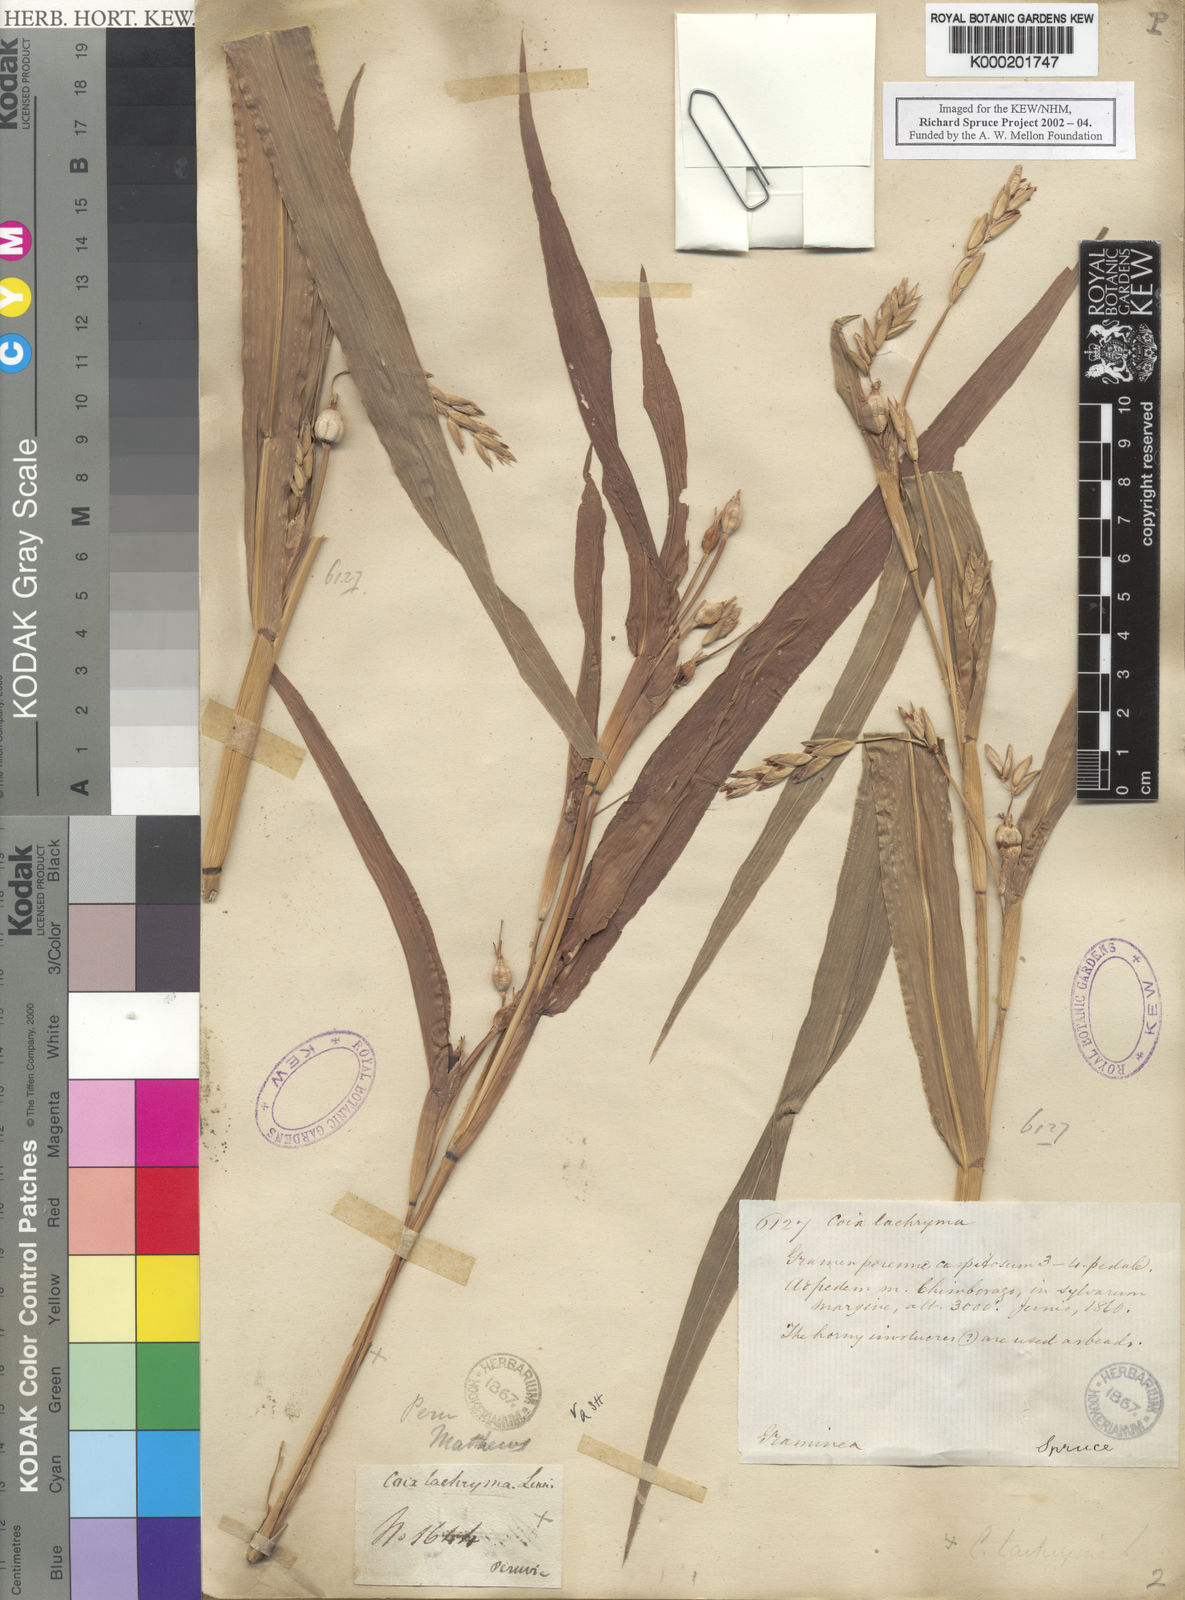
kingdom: Plantae
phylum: Tracheophyta
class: Liliopsida
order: Poales
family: Poaceae
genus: Coix
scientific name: Coix lacryma-jobi
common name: Job's tears
